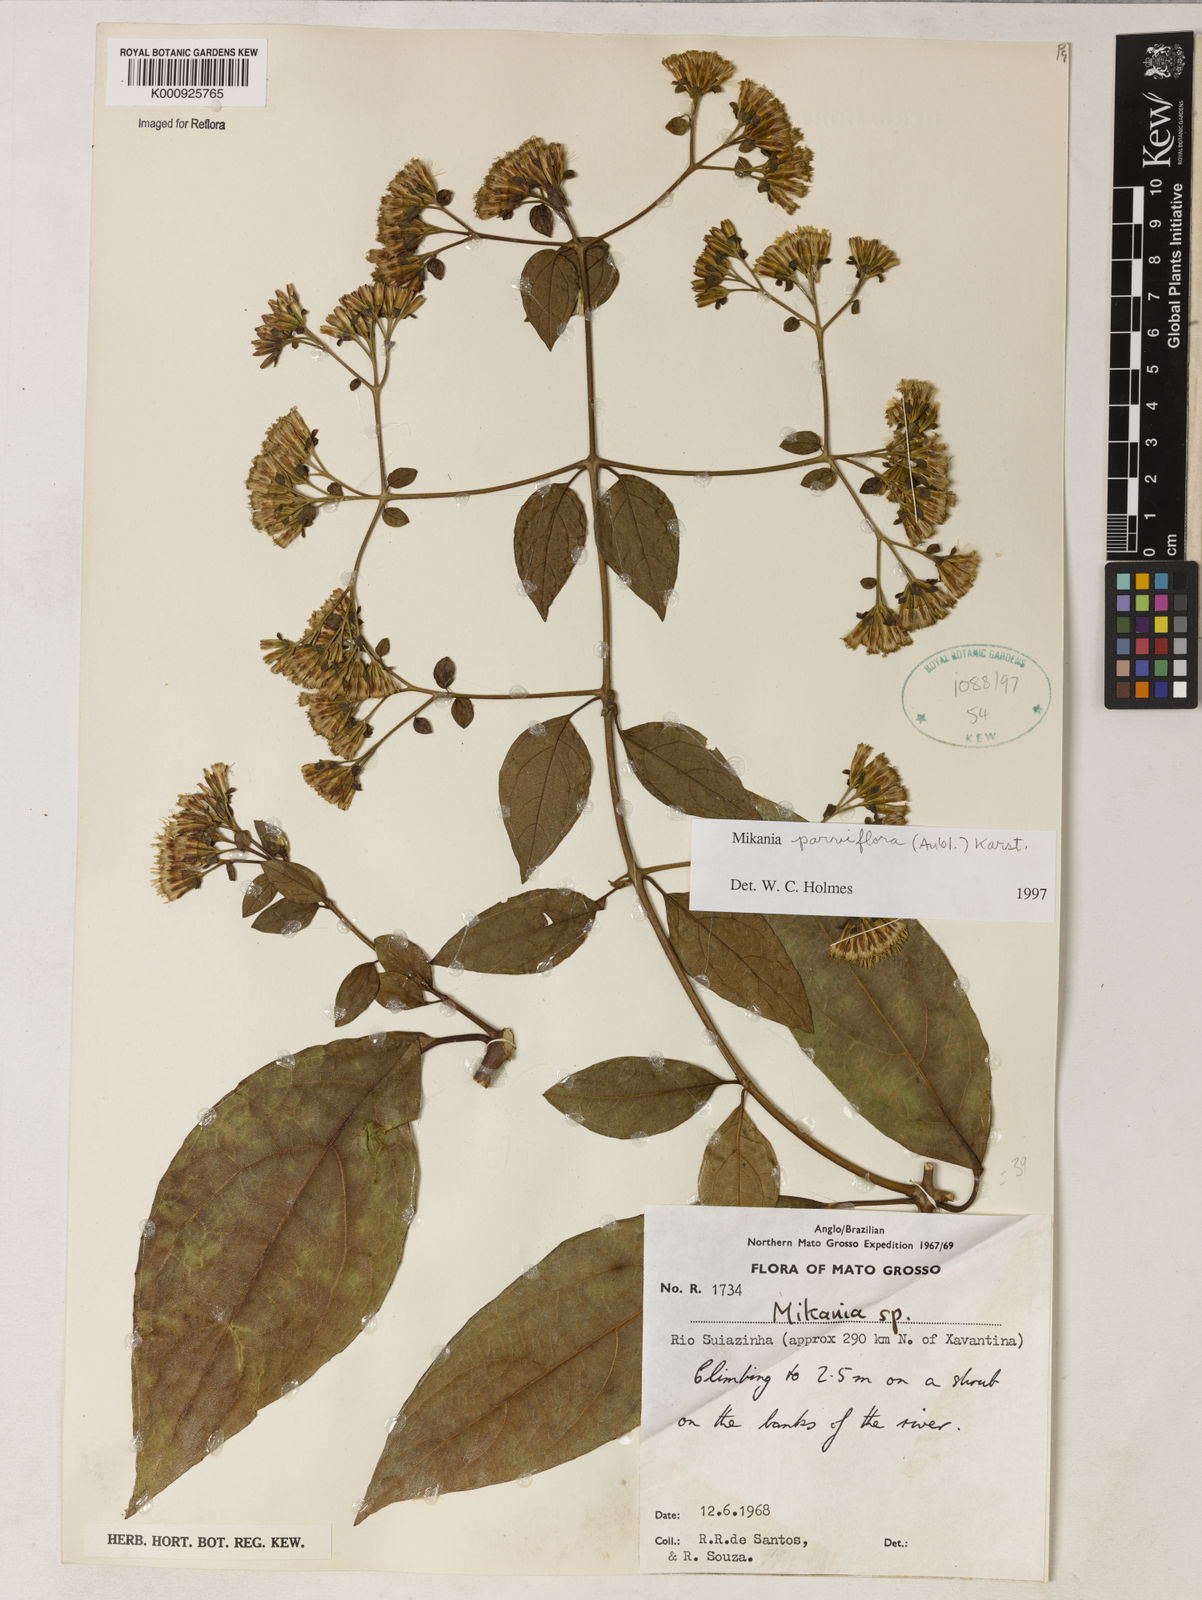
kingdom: Plantae
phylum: Tracheophyta
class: Magnoliopsida
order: Asterales
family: Asteraceae
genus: Mikania
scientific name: Mikania parvifolia
